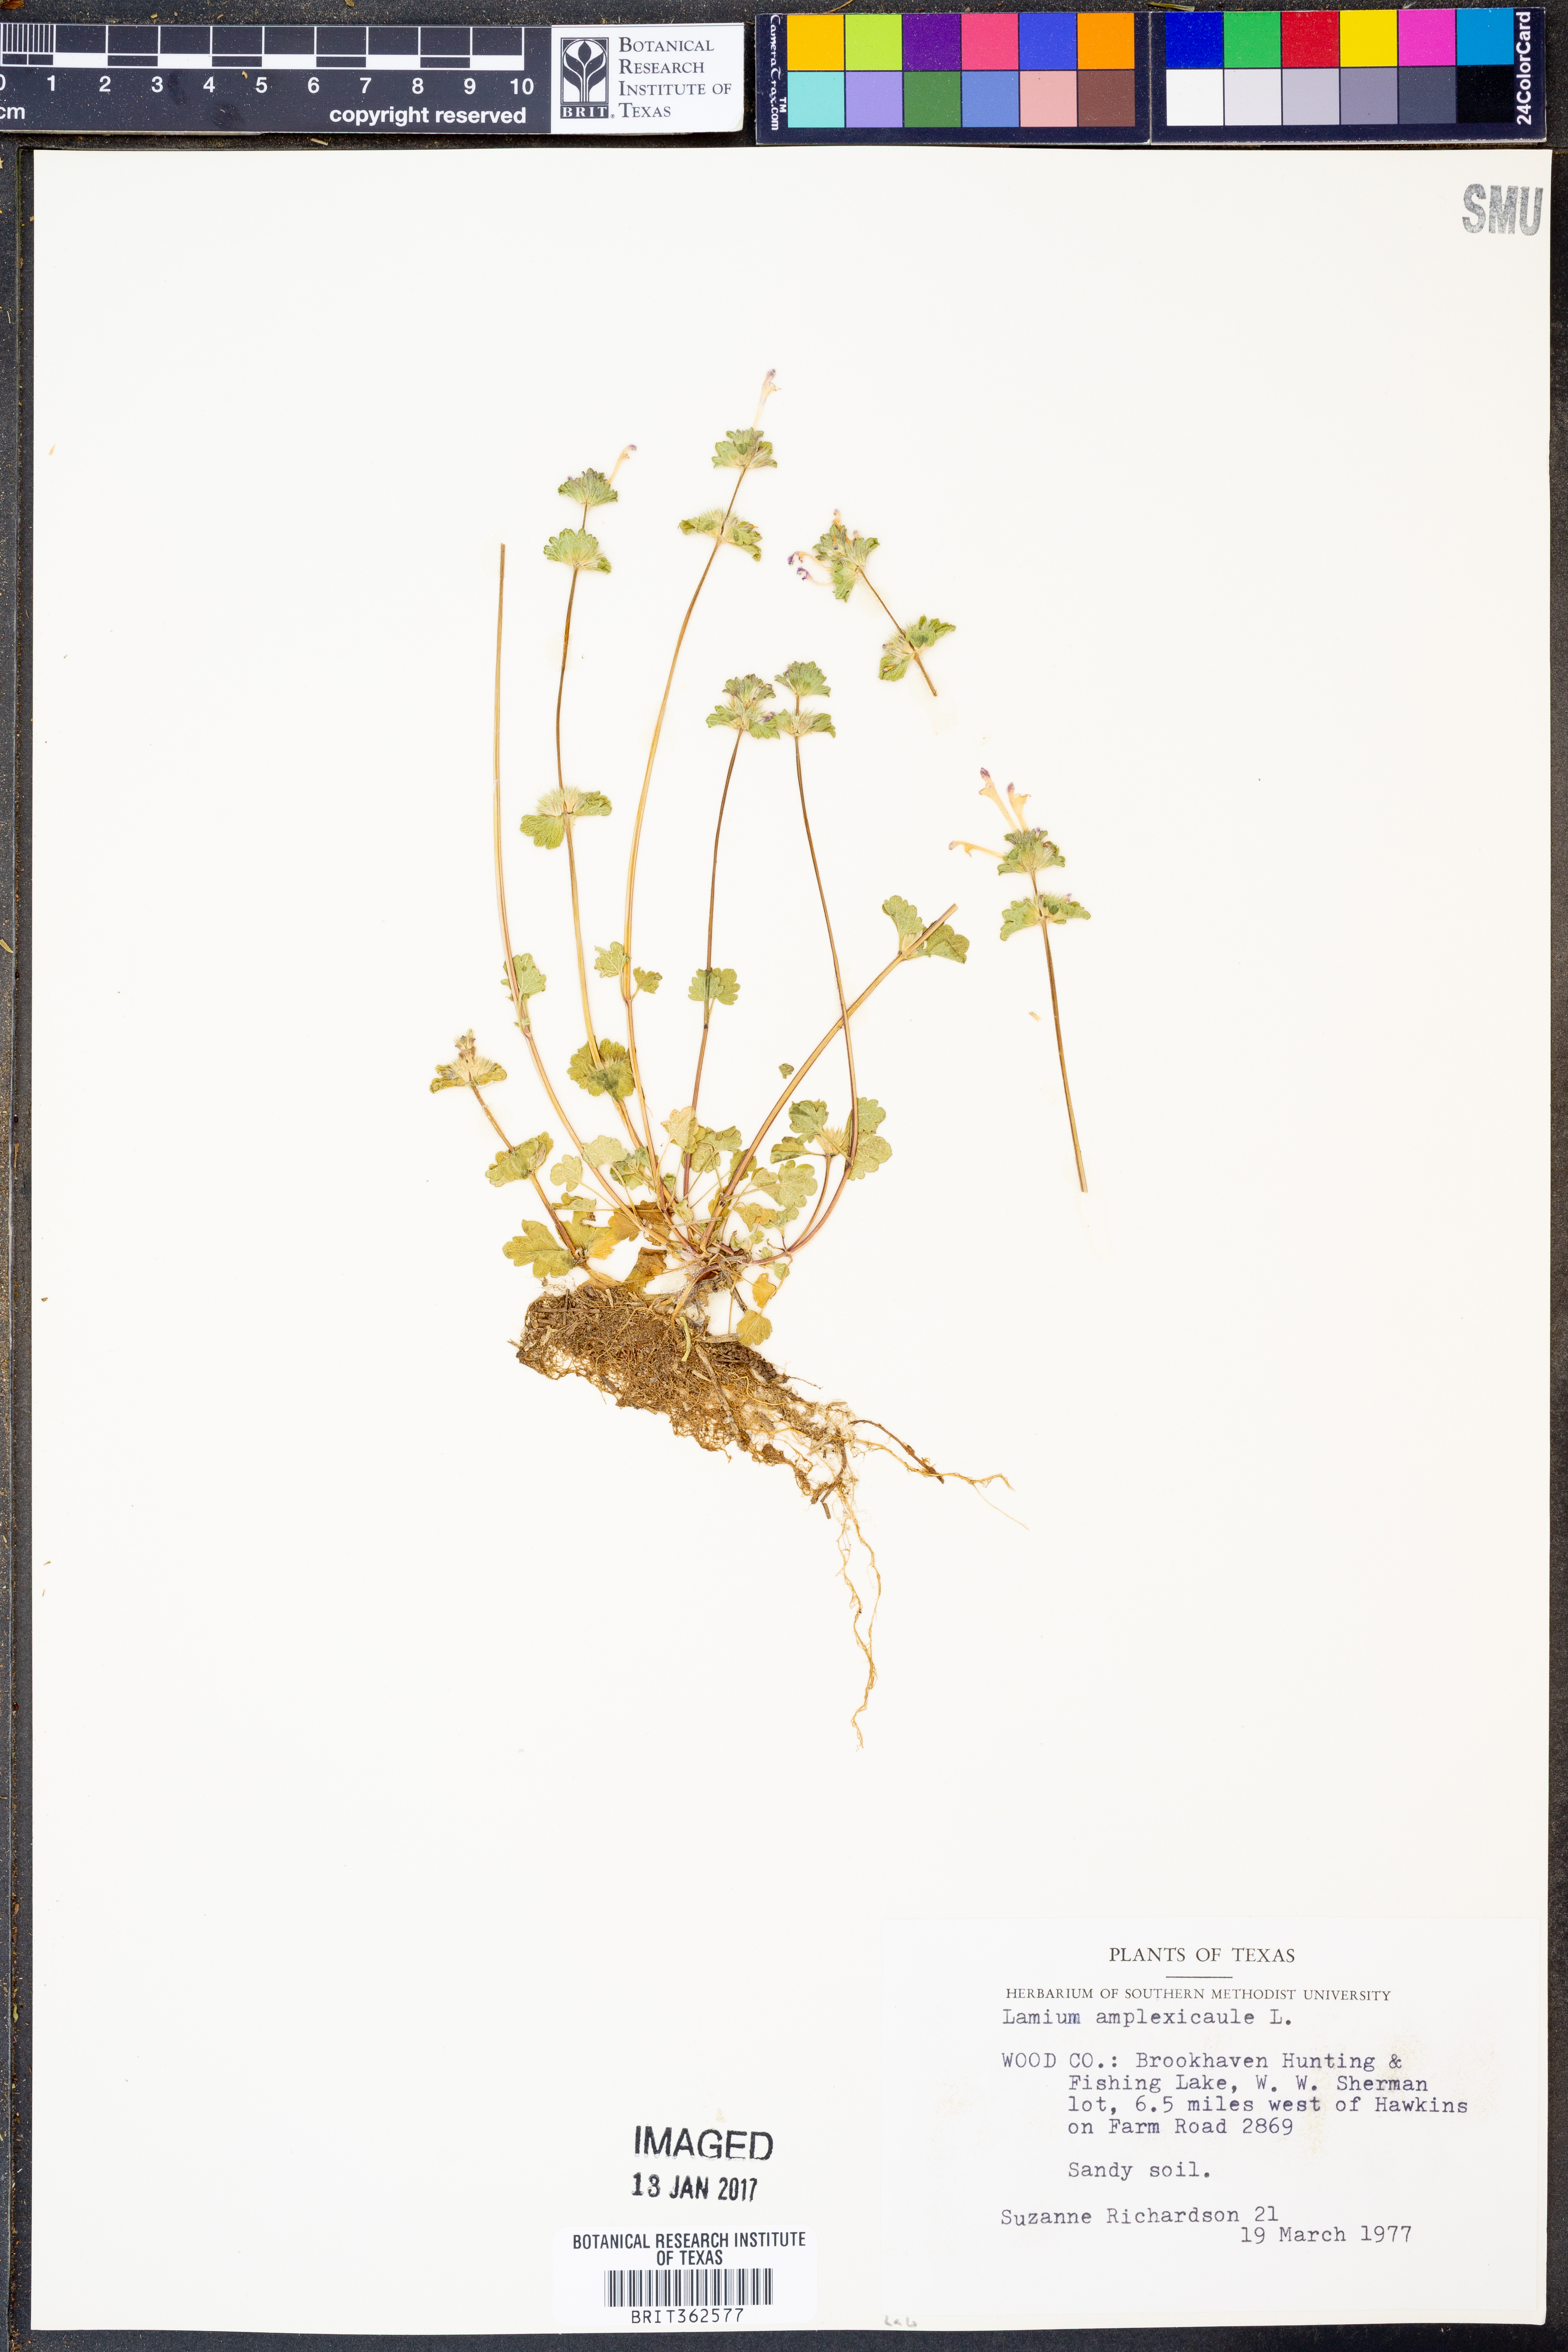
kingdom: Plantae
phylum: Tracheophyta
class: Magnoliopsida
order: Lamiales
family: Lamiaceae
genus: Lamium
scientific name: Lamium amplexicaule
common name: Henbit dead-nettle
